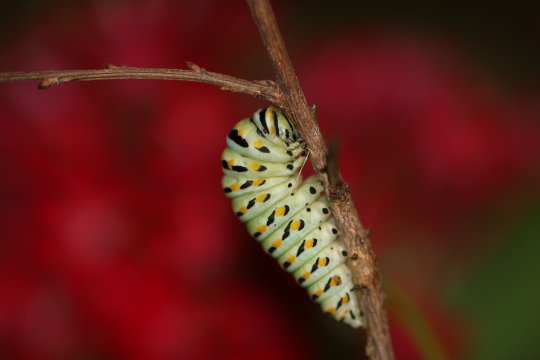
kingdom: Animalia
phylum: Arthropoda
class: Insecta
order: Lepidoptera
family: Papilionidae
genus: Papilio
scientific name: Papilio polyxenes
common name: Black Swallowtail
